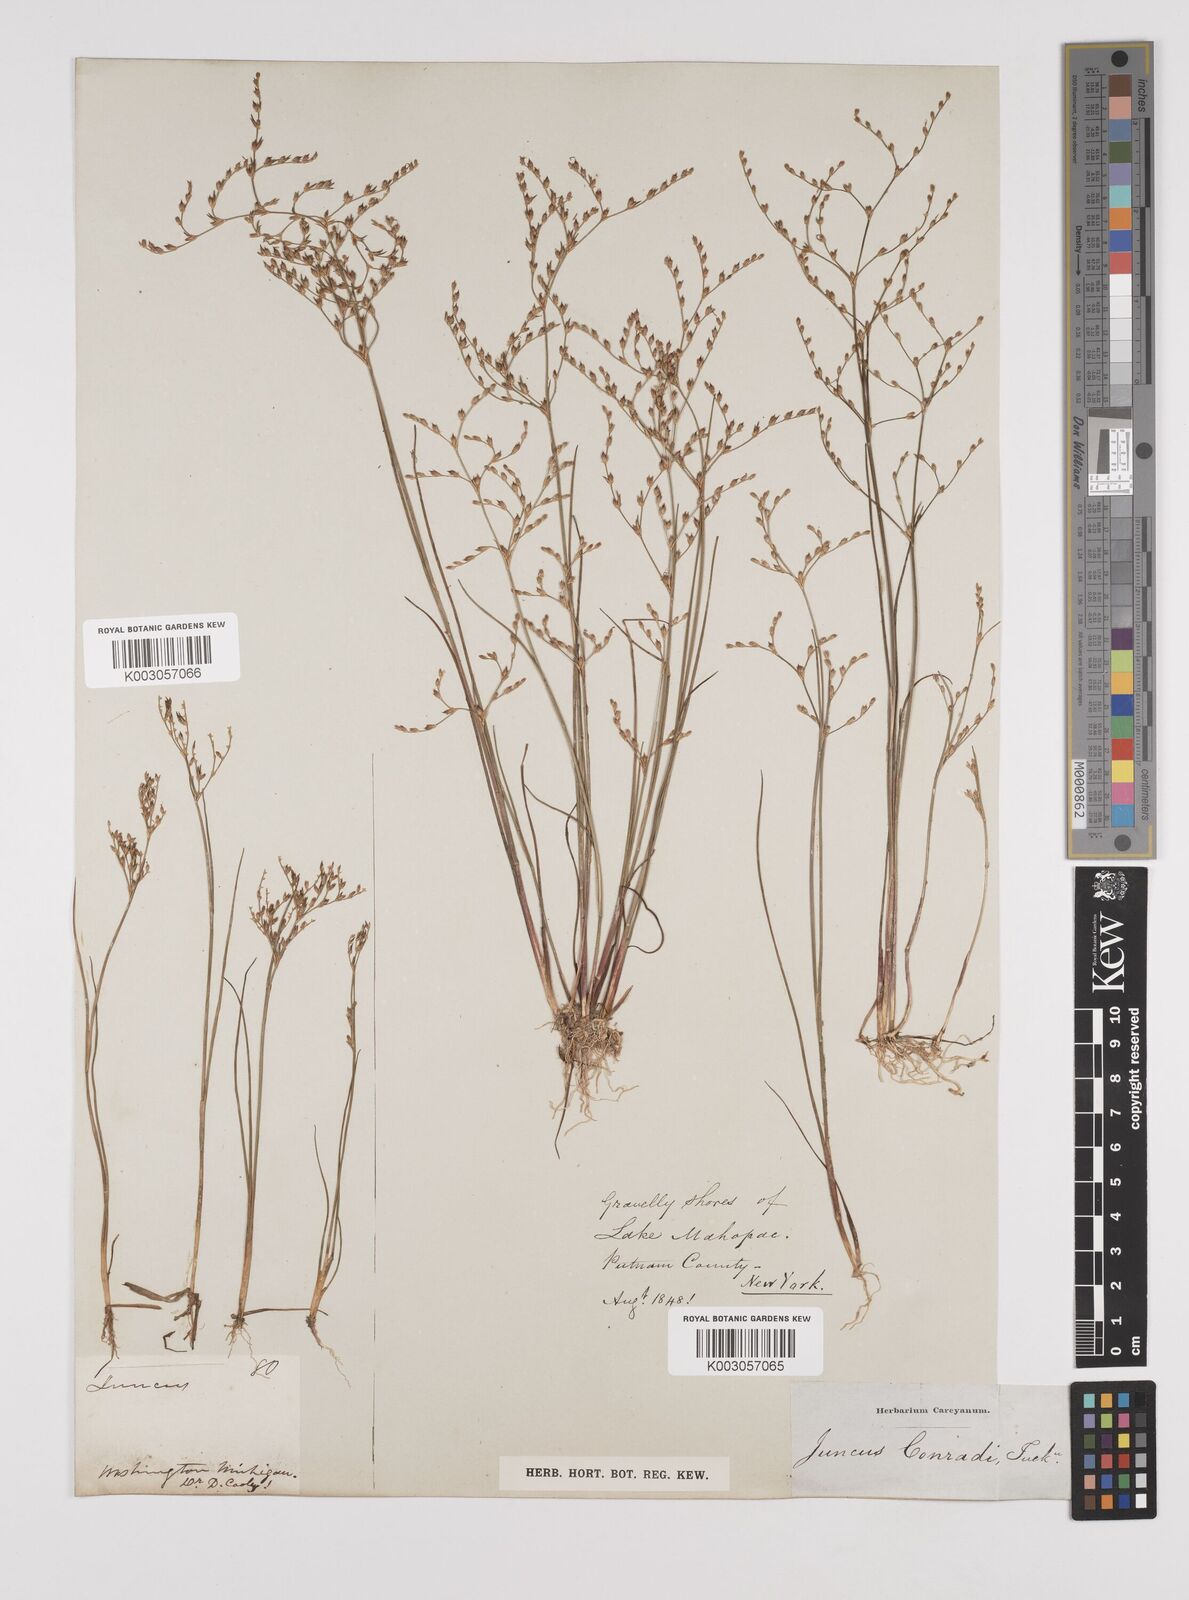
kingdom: Plantae
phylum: Tracheophyta
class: Liliopsida
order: Poales
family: Juncaceae
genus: Juncus
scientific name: Juncus pelocarpus
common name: Brown-fruited rush
